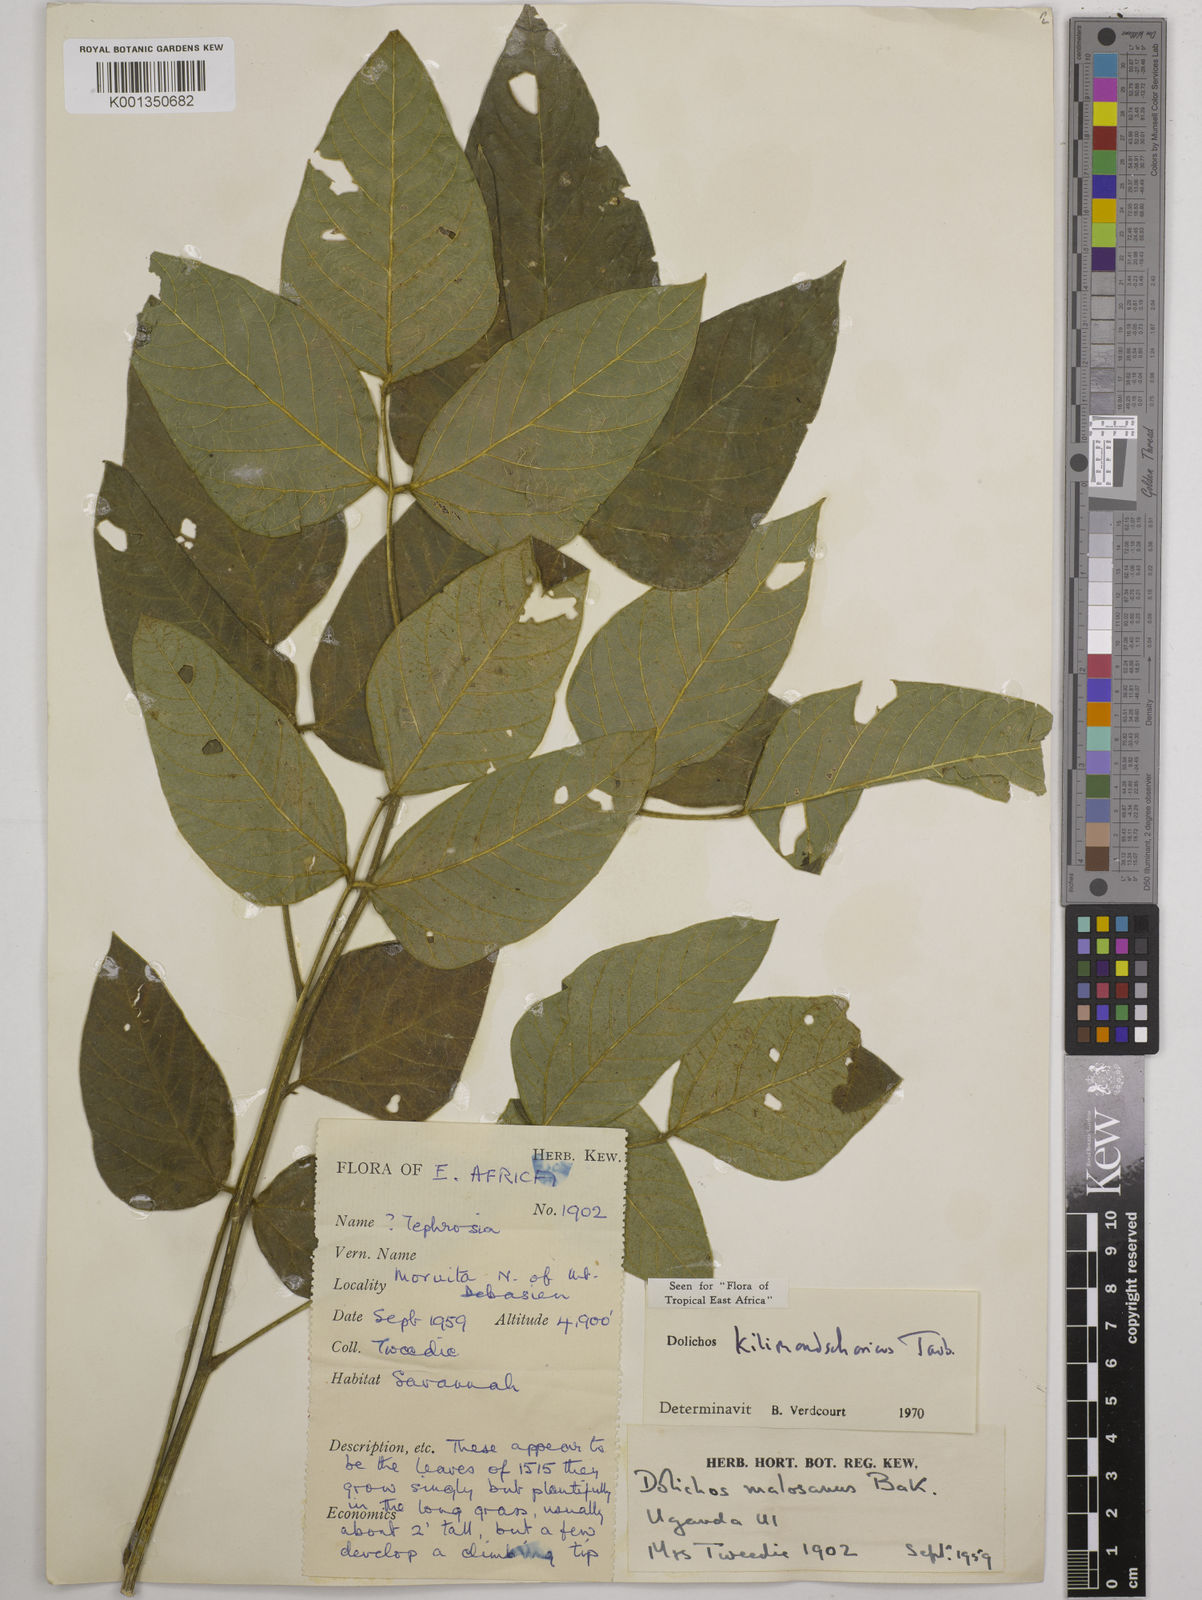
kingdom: Plantae
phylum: Tracheophyta
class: Magnoliopsida
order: Fabales
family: Fabaceae
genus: Dolichos
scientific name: Dolichos kilimandscharicus
